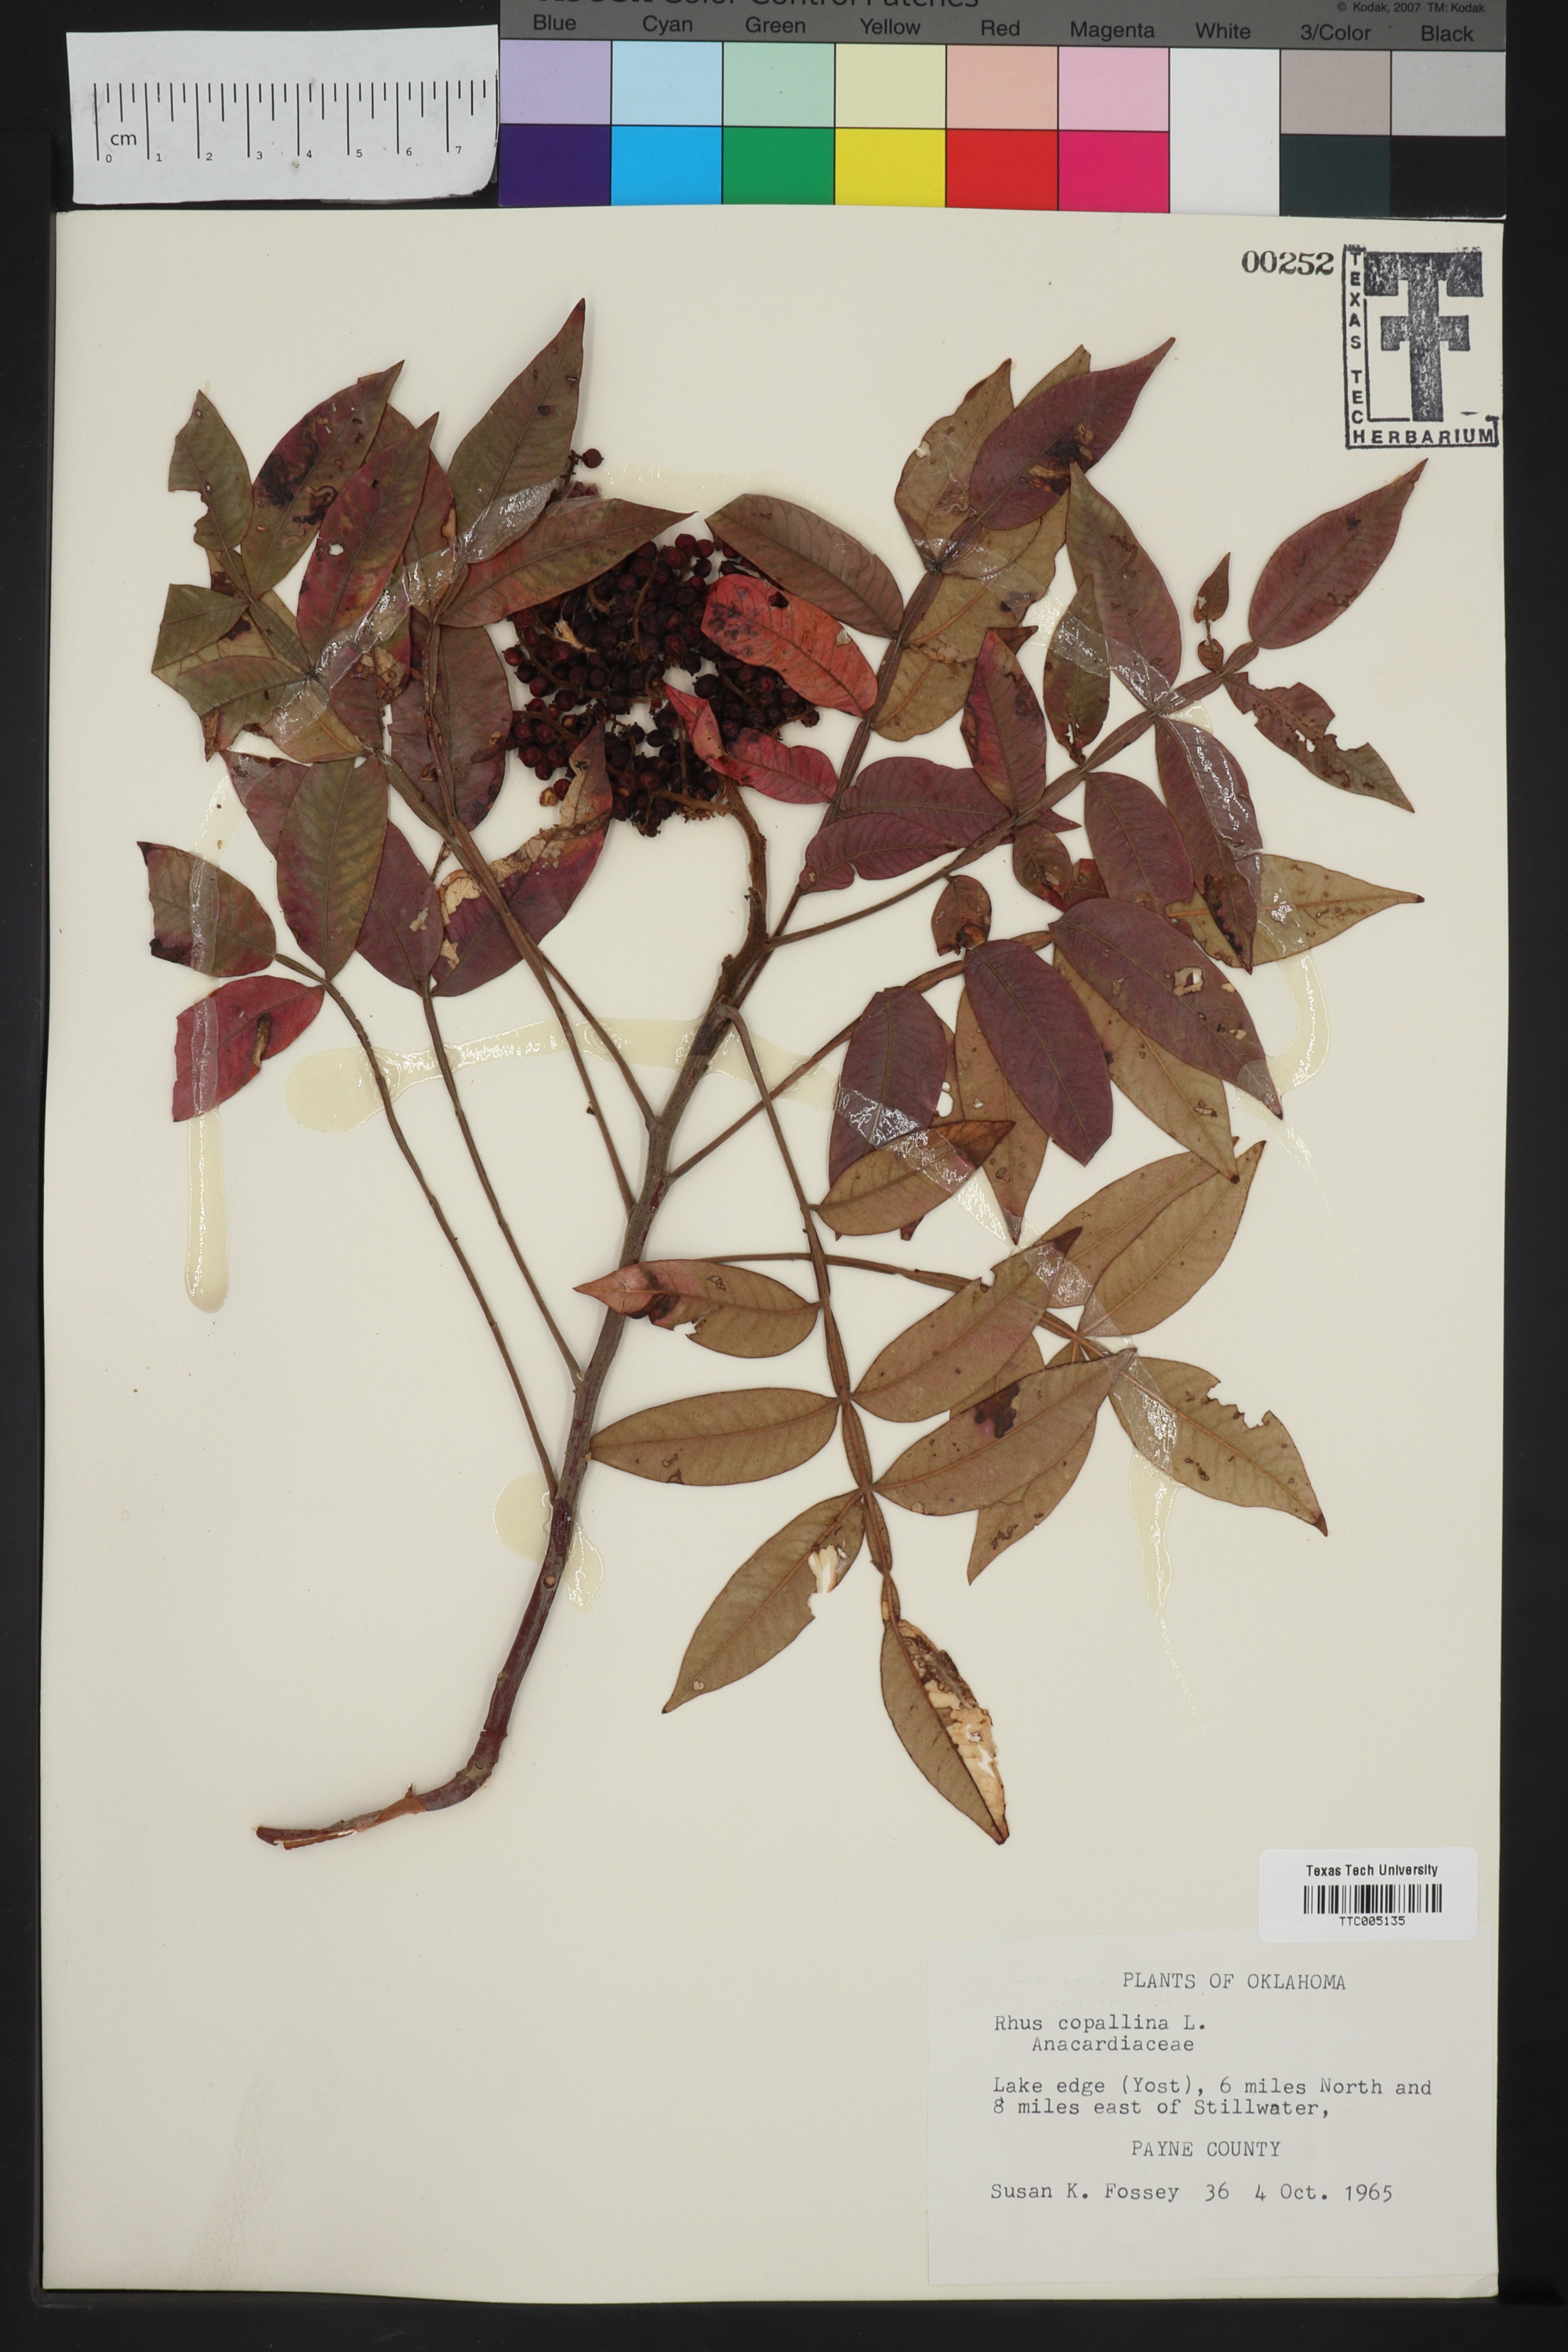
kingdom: Plantae
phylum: Tracheophyta
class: Magnoliopsida
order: Sapindales
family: Anacardiaceae
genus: Rhus
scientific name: Rhus copallina
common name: Shining sumac
